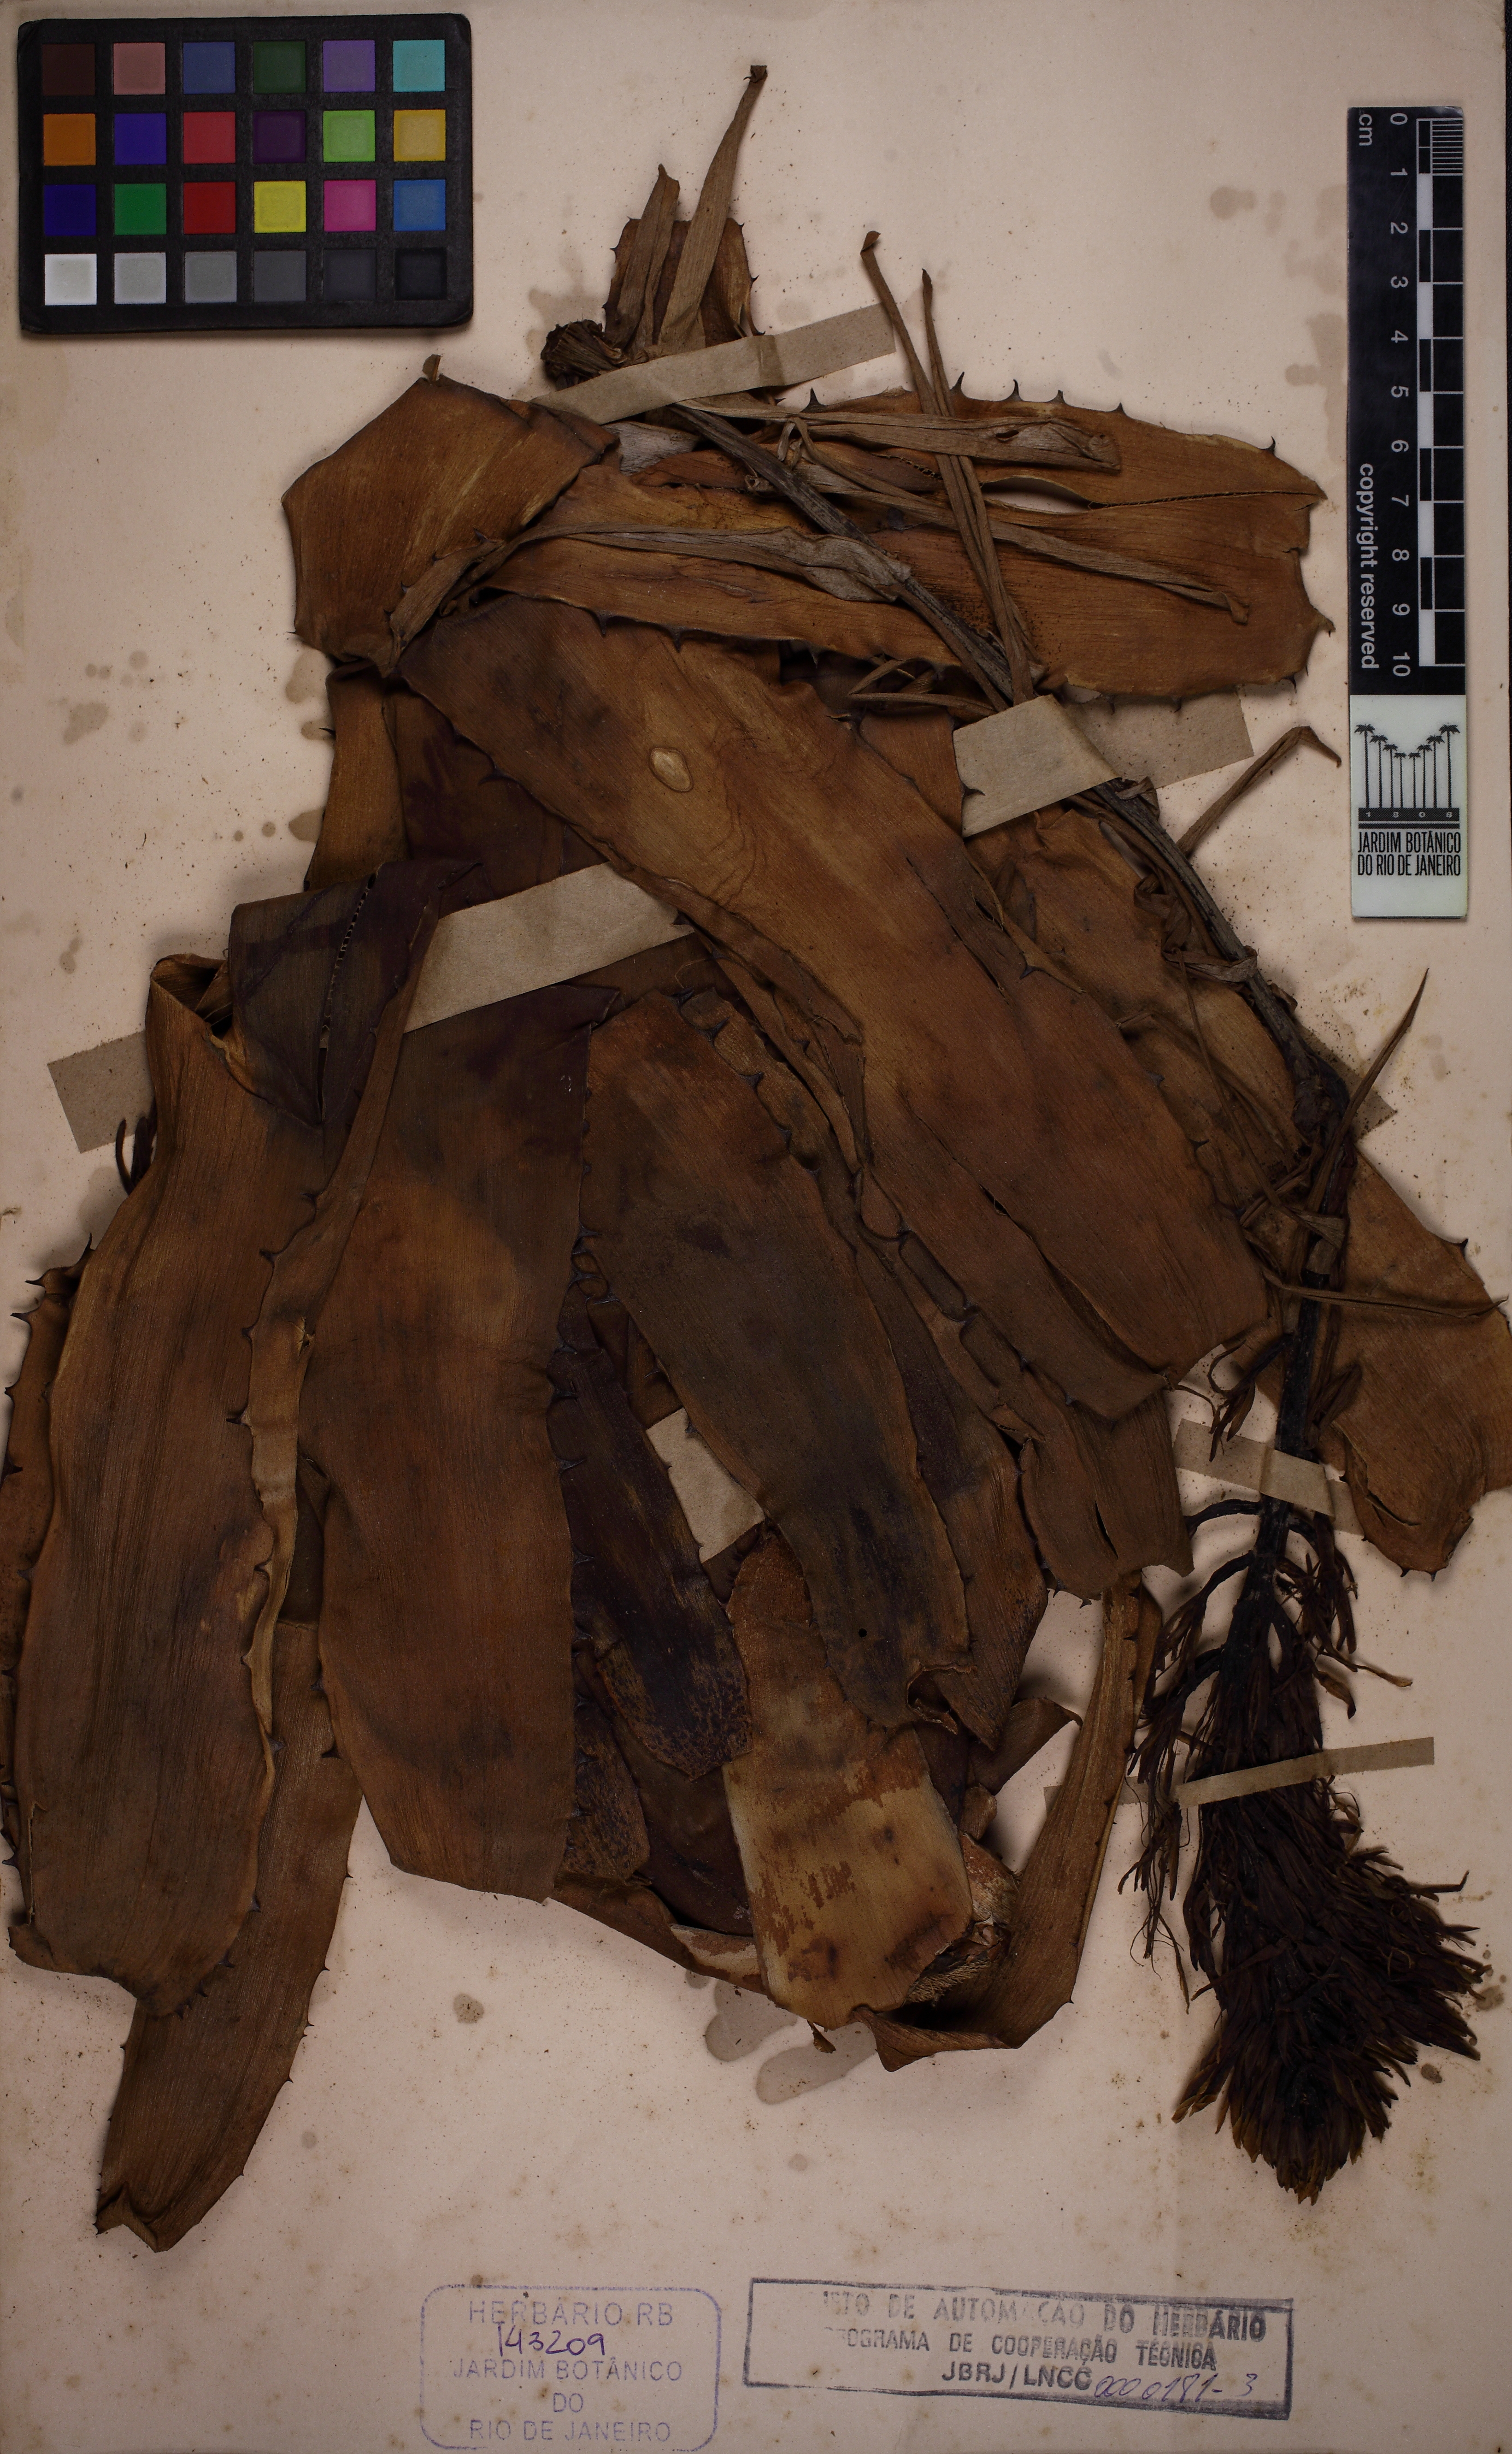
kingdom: Plantae
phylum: Tracheophyta
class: Liliopsida
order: Poales
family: Bromeliaceae
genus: Billbergia
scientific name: Billbergia horrida
